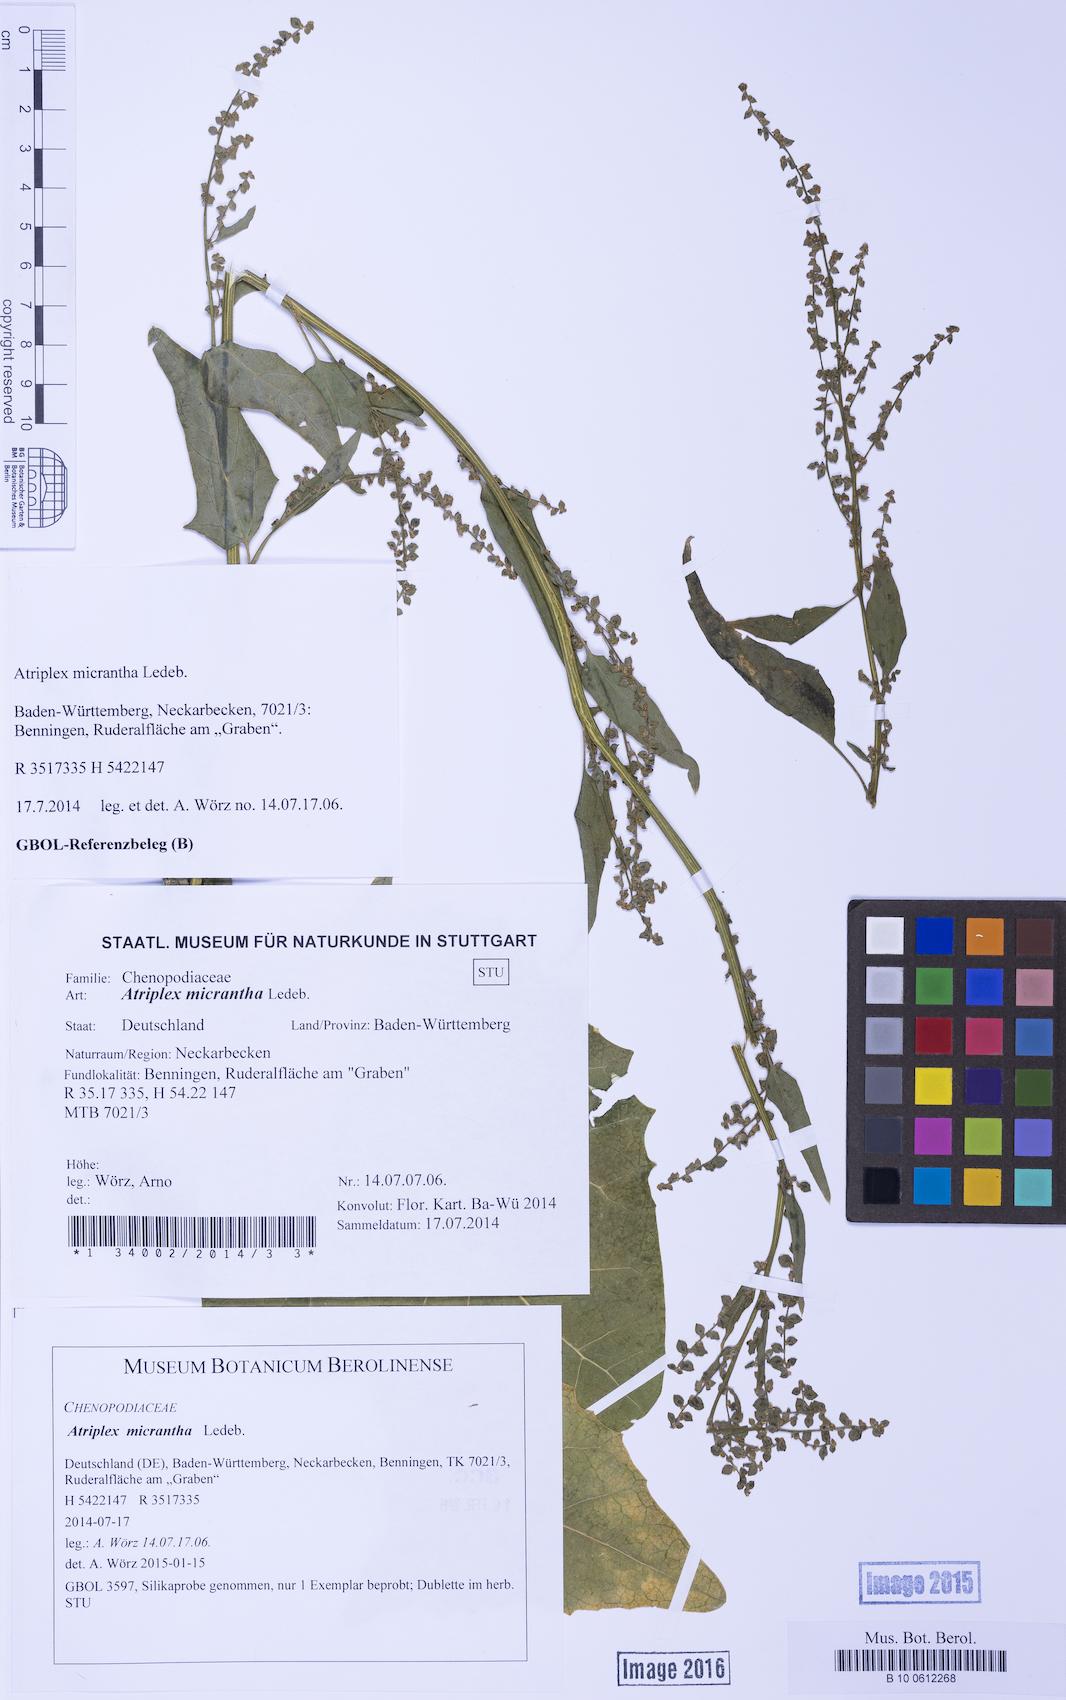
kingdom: Plantae
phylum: Tracheophyta
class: Magnoliopsida
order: Caryophyllales
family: Amaranthaceae
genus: Atriplex
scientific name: Atriplex micrantha
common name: Twoscale saltbush
